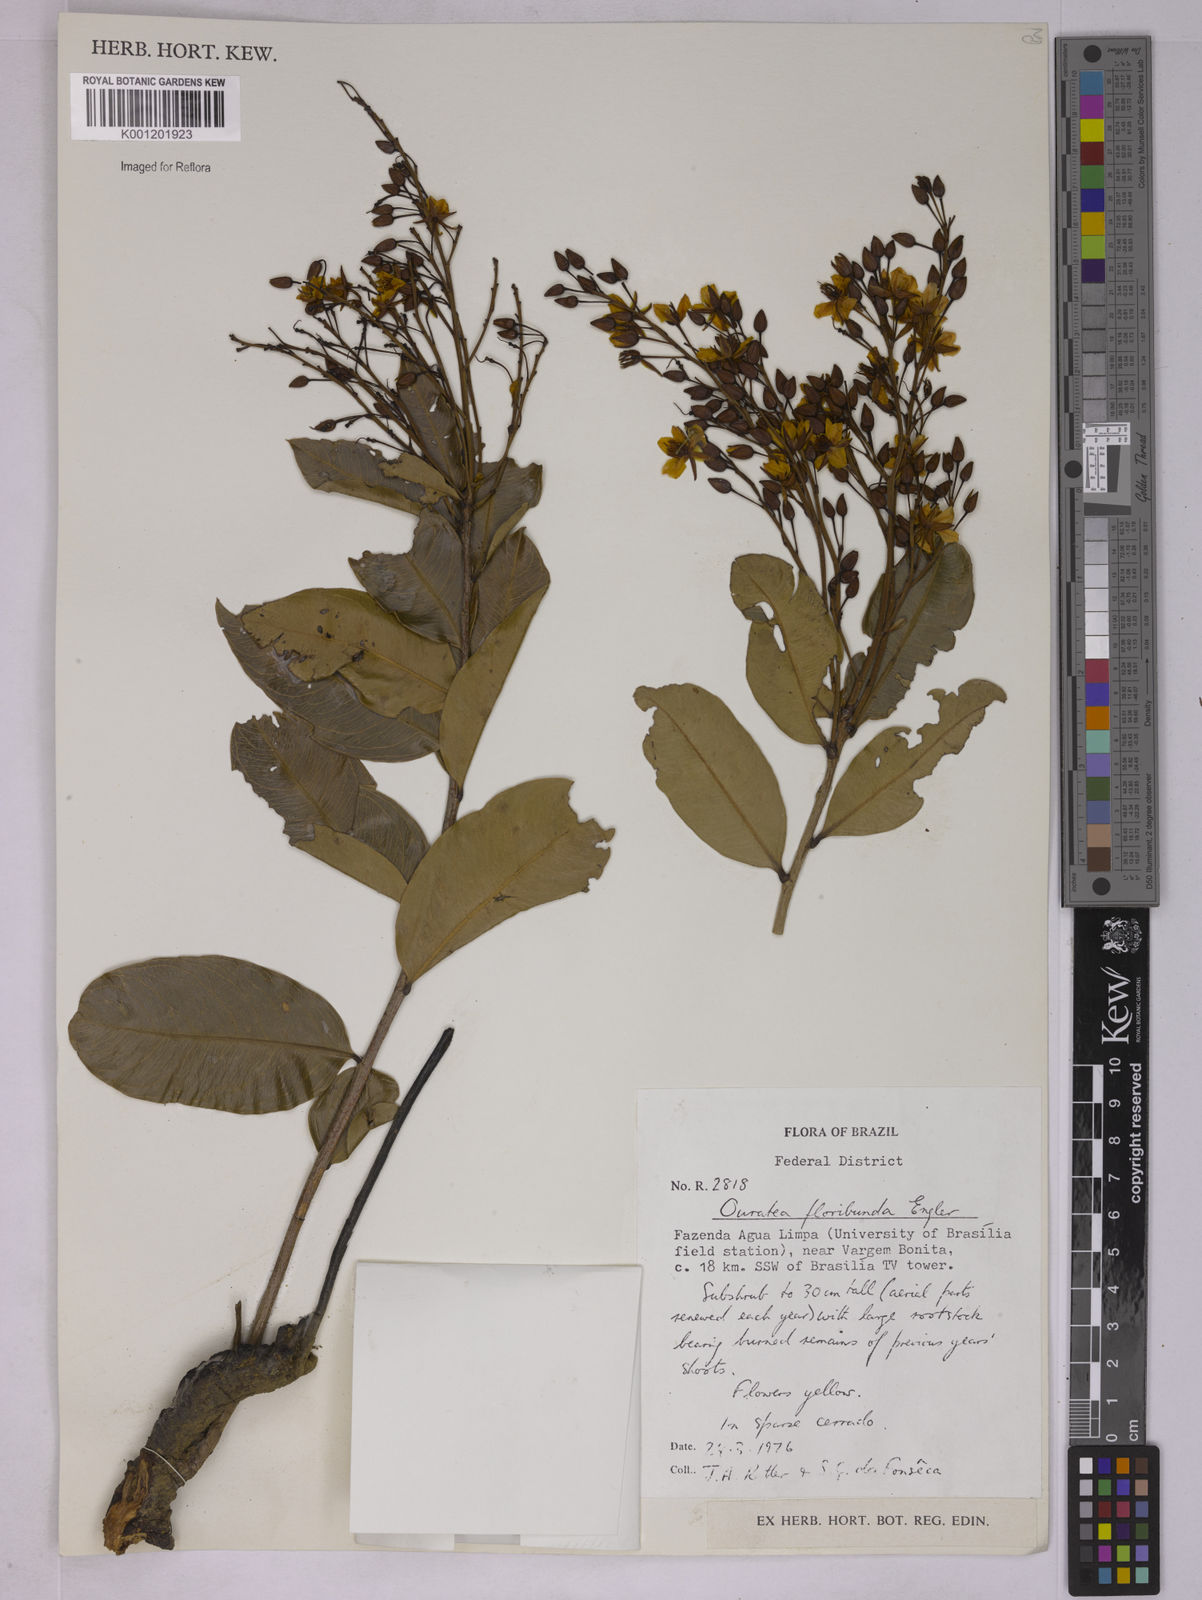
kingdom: Plantae
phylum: Tracheophyta
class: Magnoliopsida
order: Malpighiales
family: Ochnaceae
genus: Ouratea
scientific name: Ouratea floribunda
